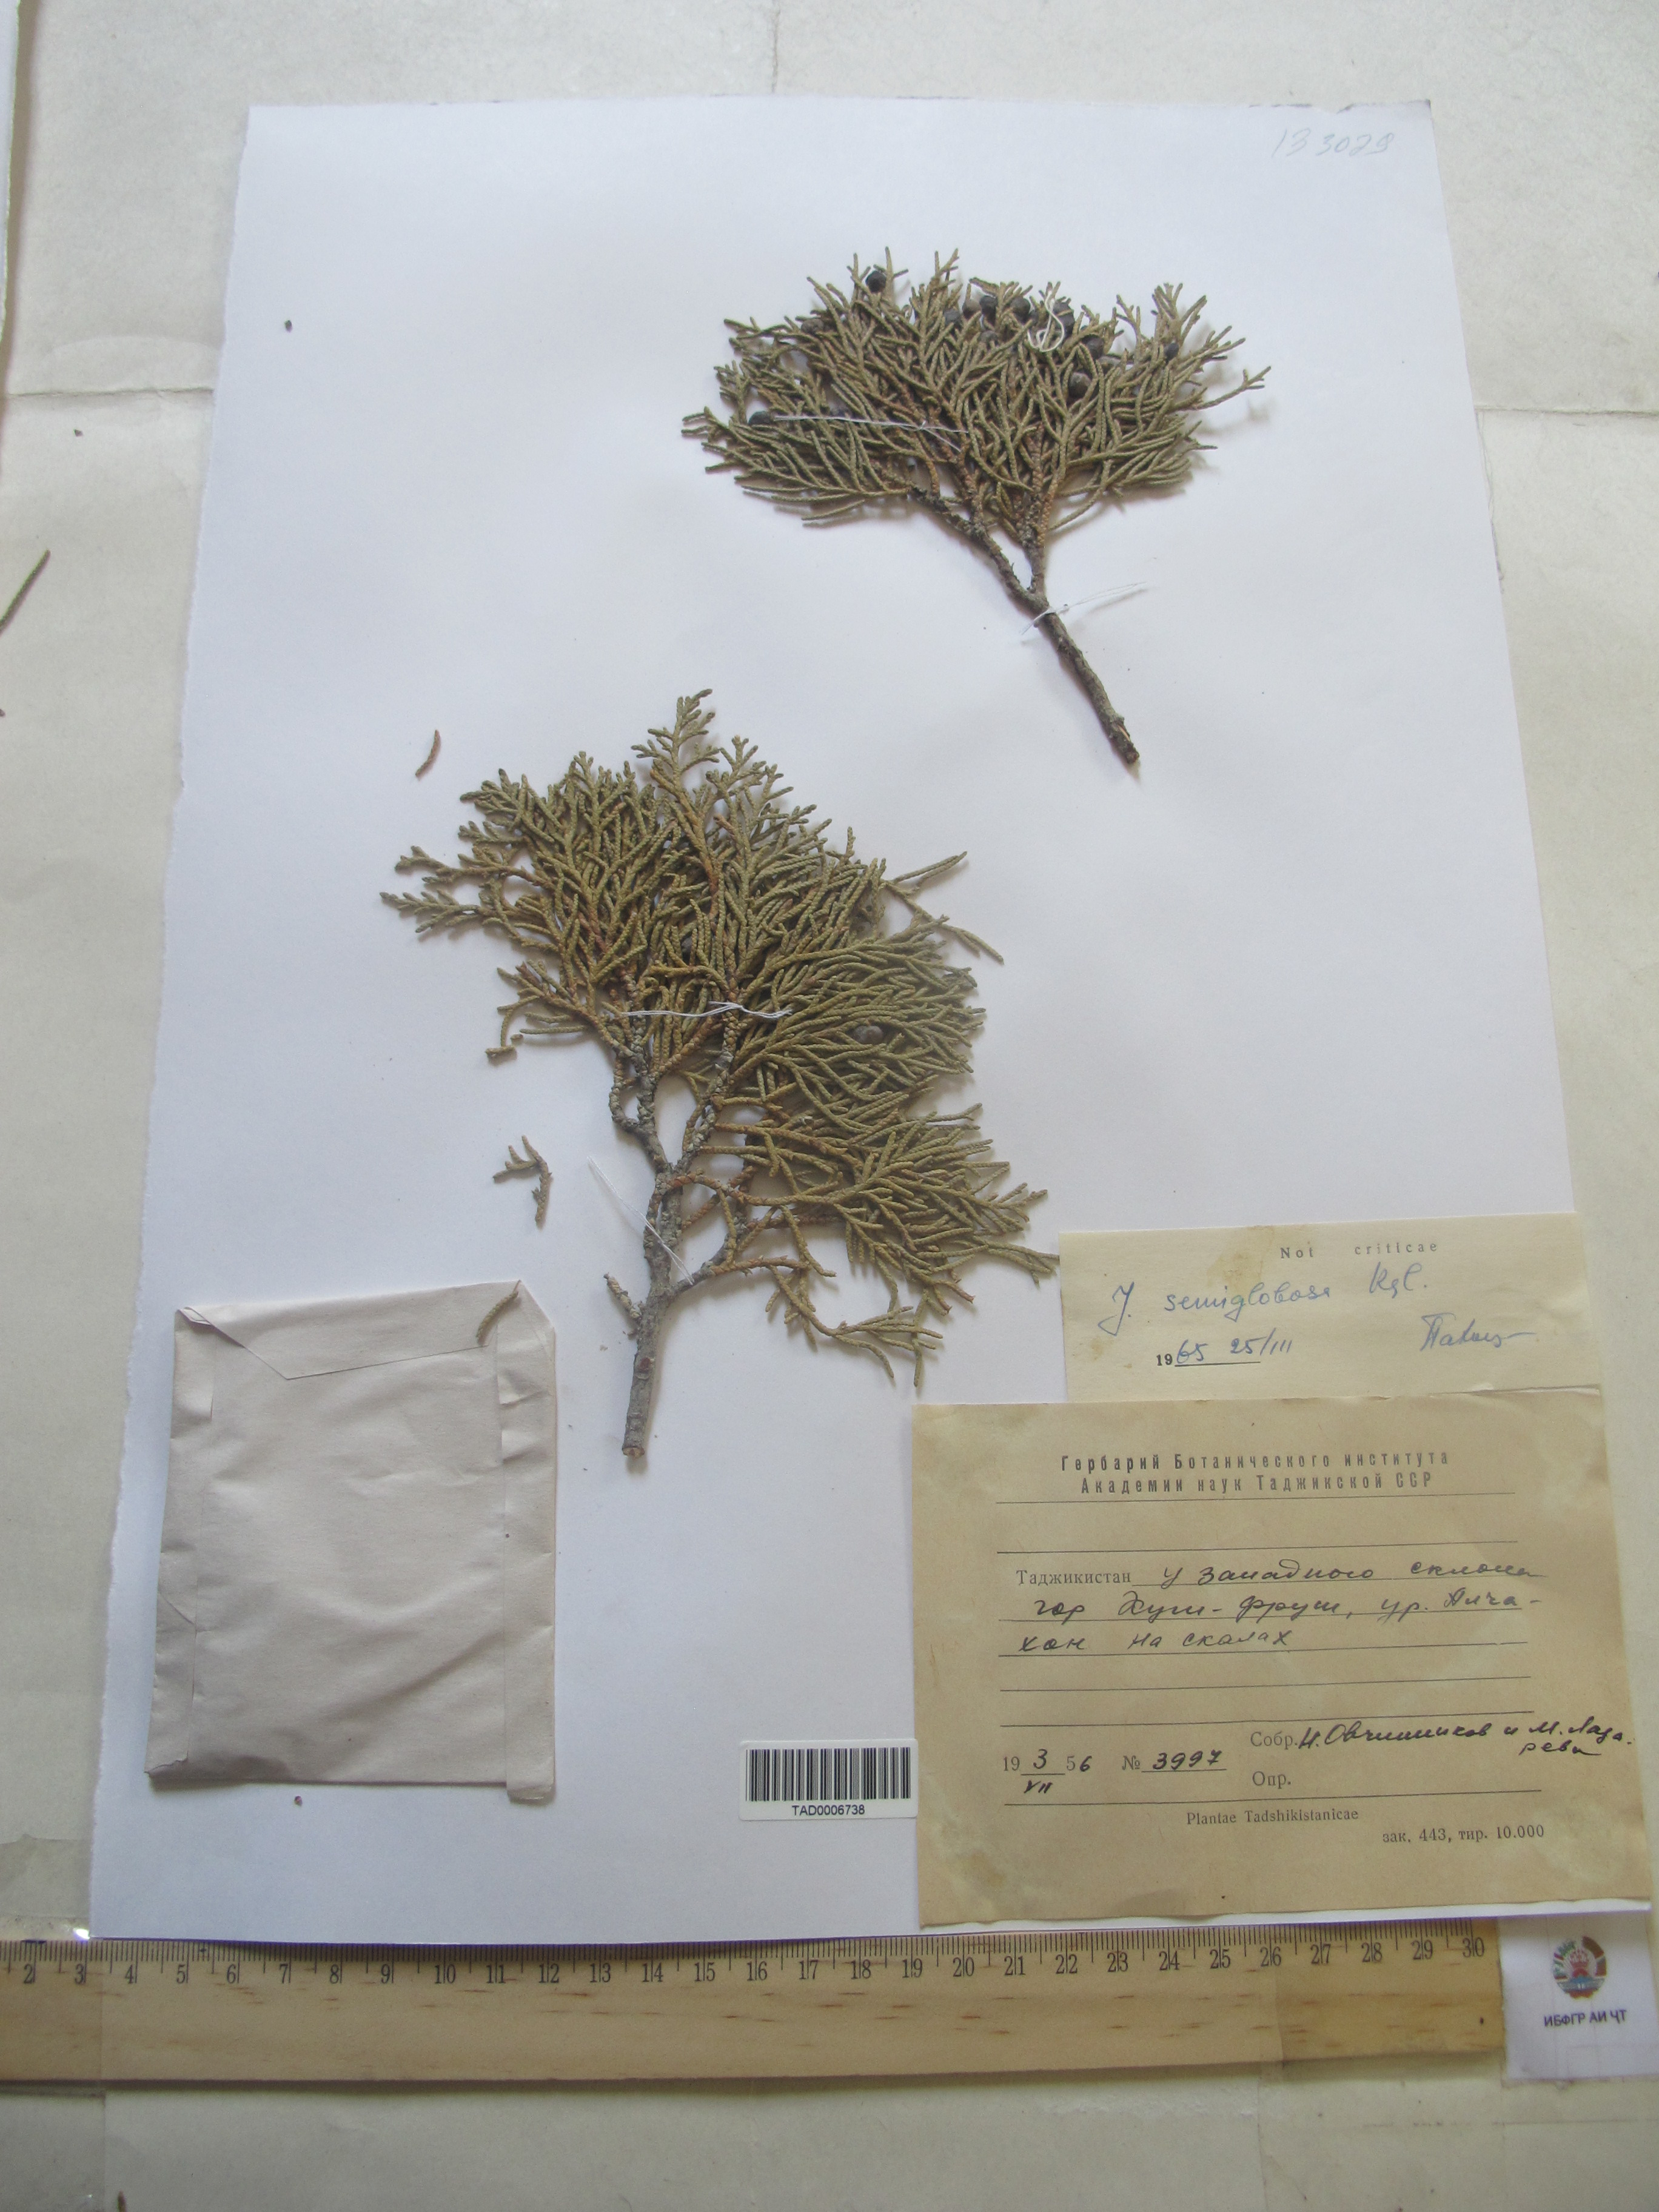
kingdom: Plantae
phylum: Tracheophyta
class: Pinopsida
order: Pinales
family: Cupressaceae
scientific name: Cupressaceae
